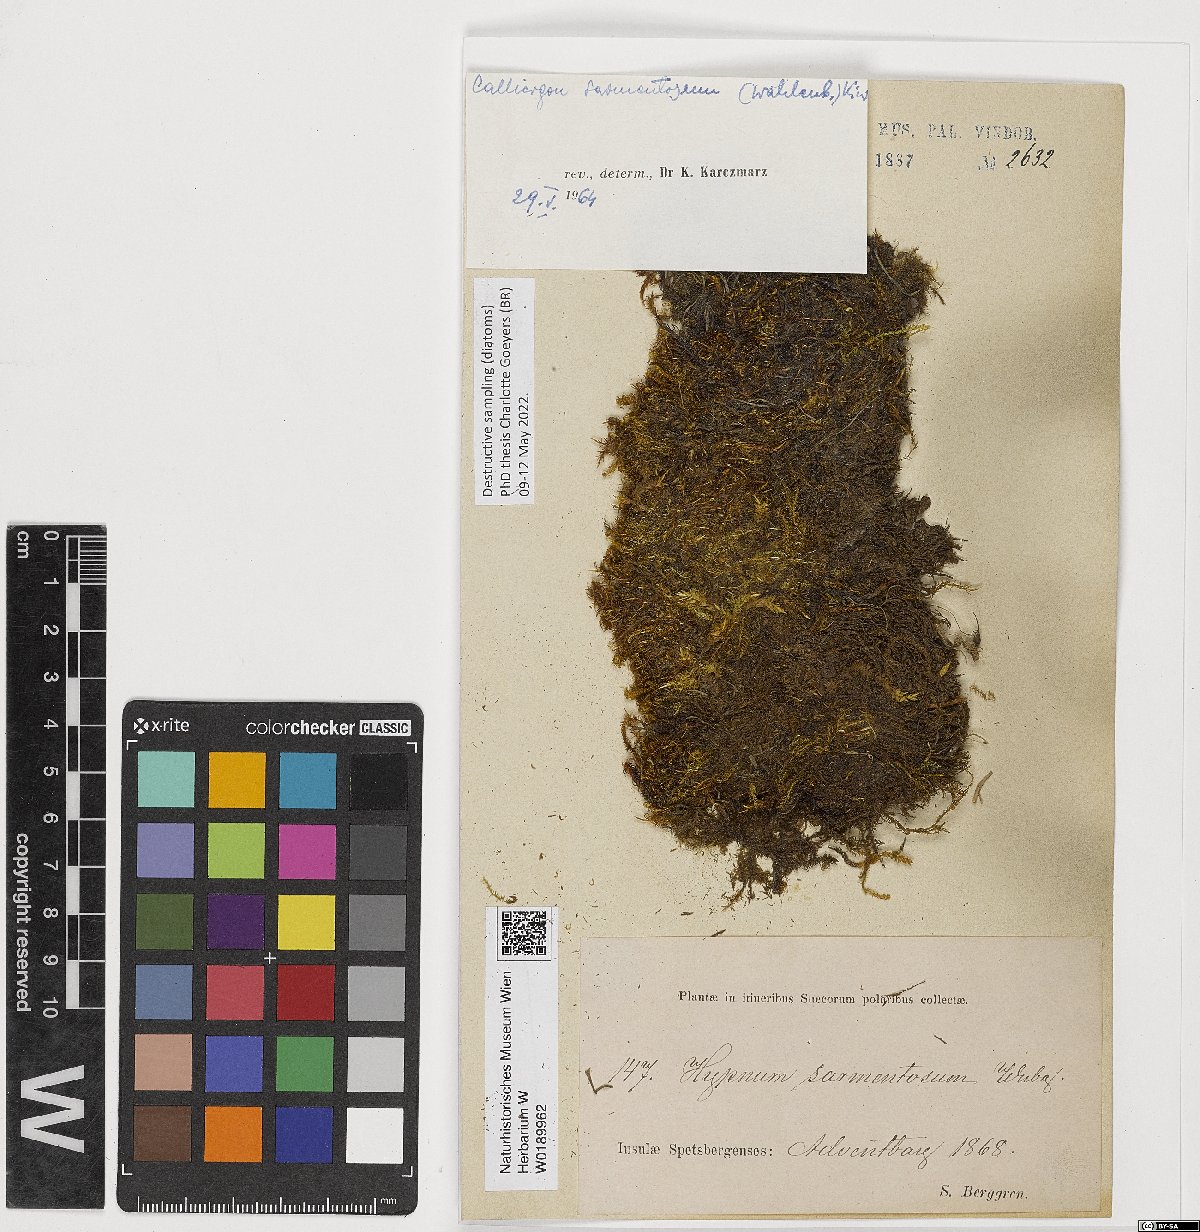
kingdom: Plantae
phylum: Bryophyta
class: Bryopsida
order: Hypnales
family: Calliergonaceae
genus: Sarmentypnum
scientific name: Sarmentypnum sarmentosum
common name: Twiggy spoon moss
